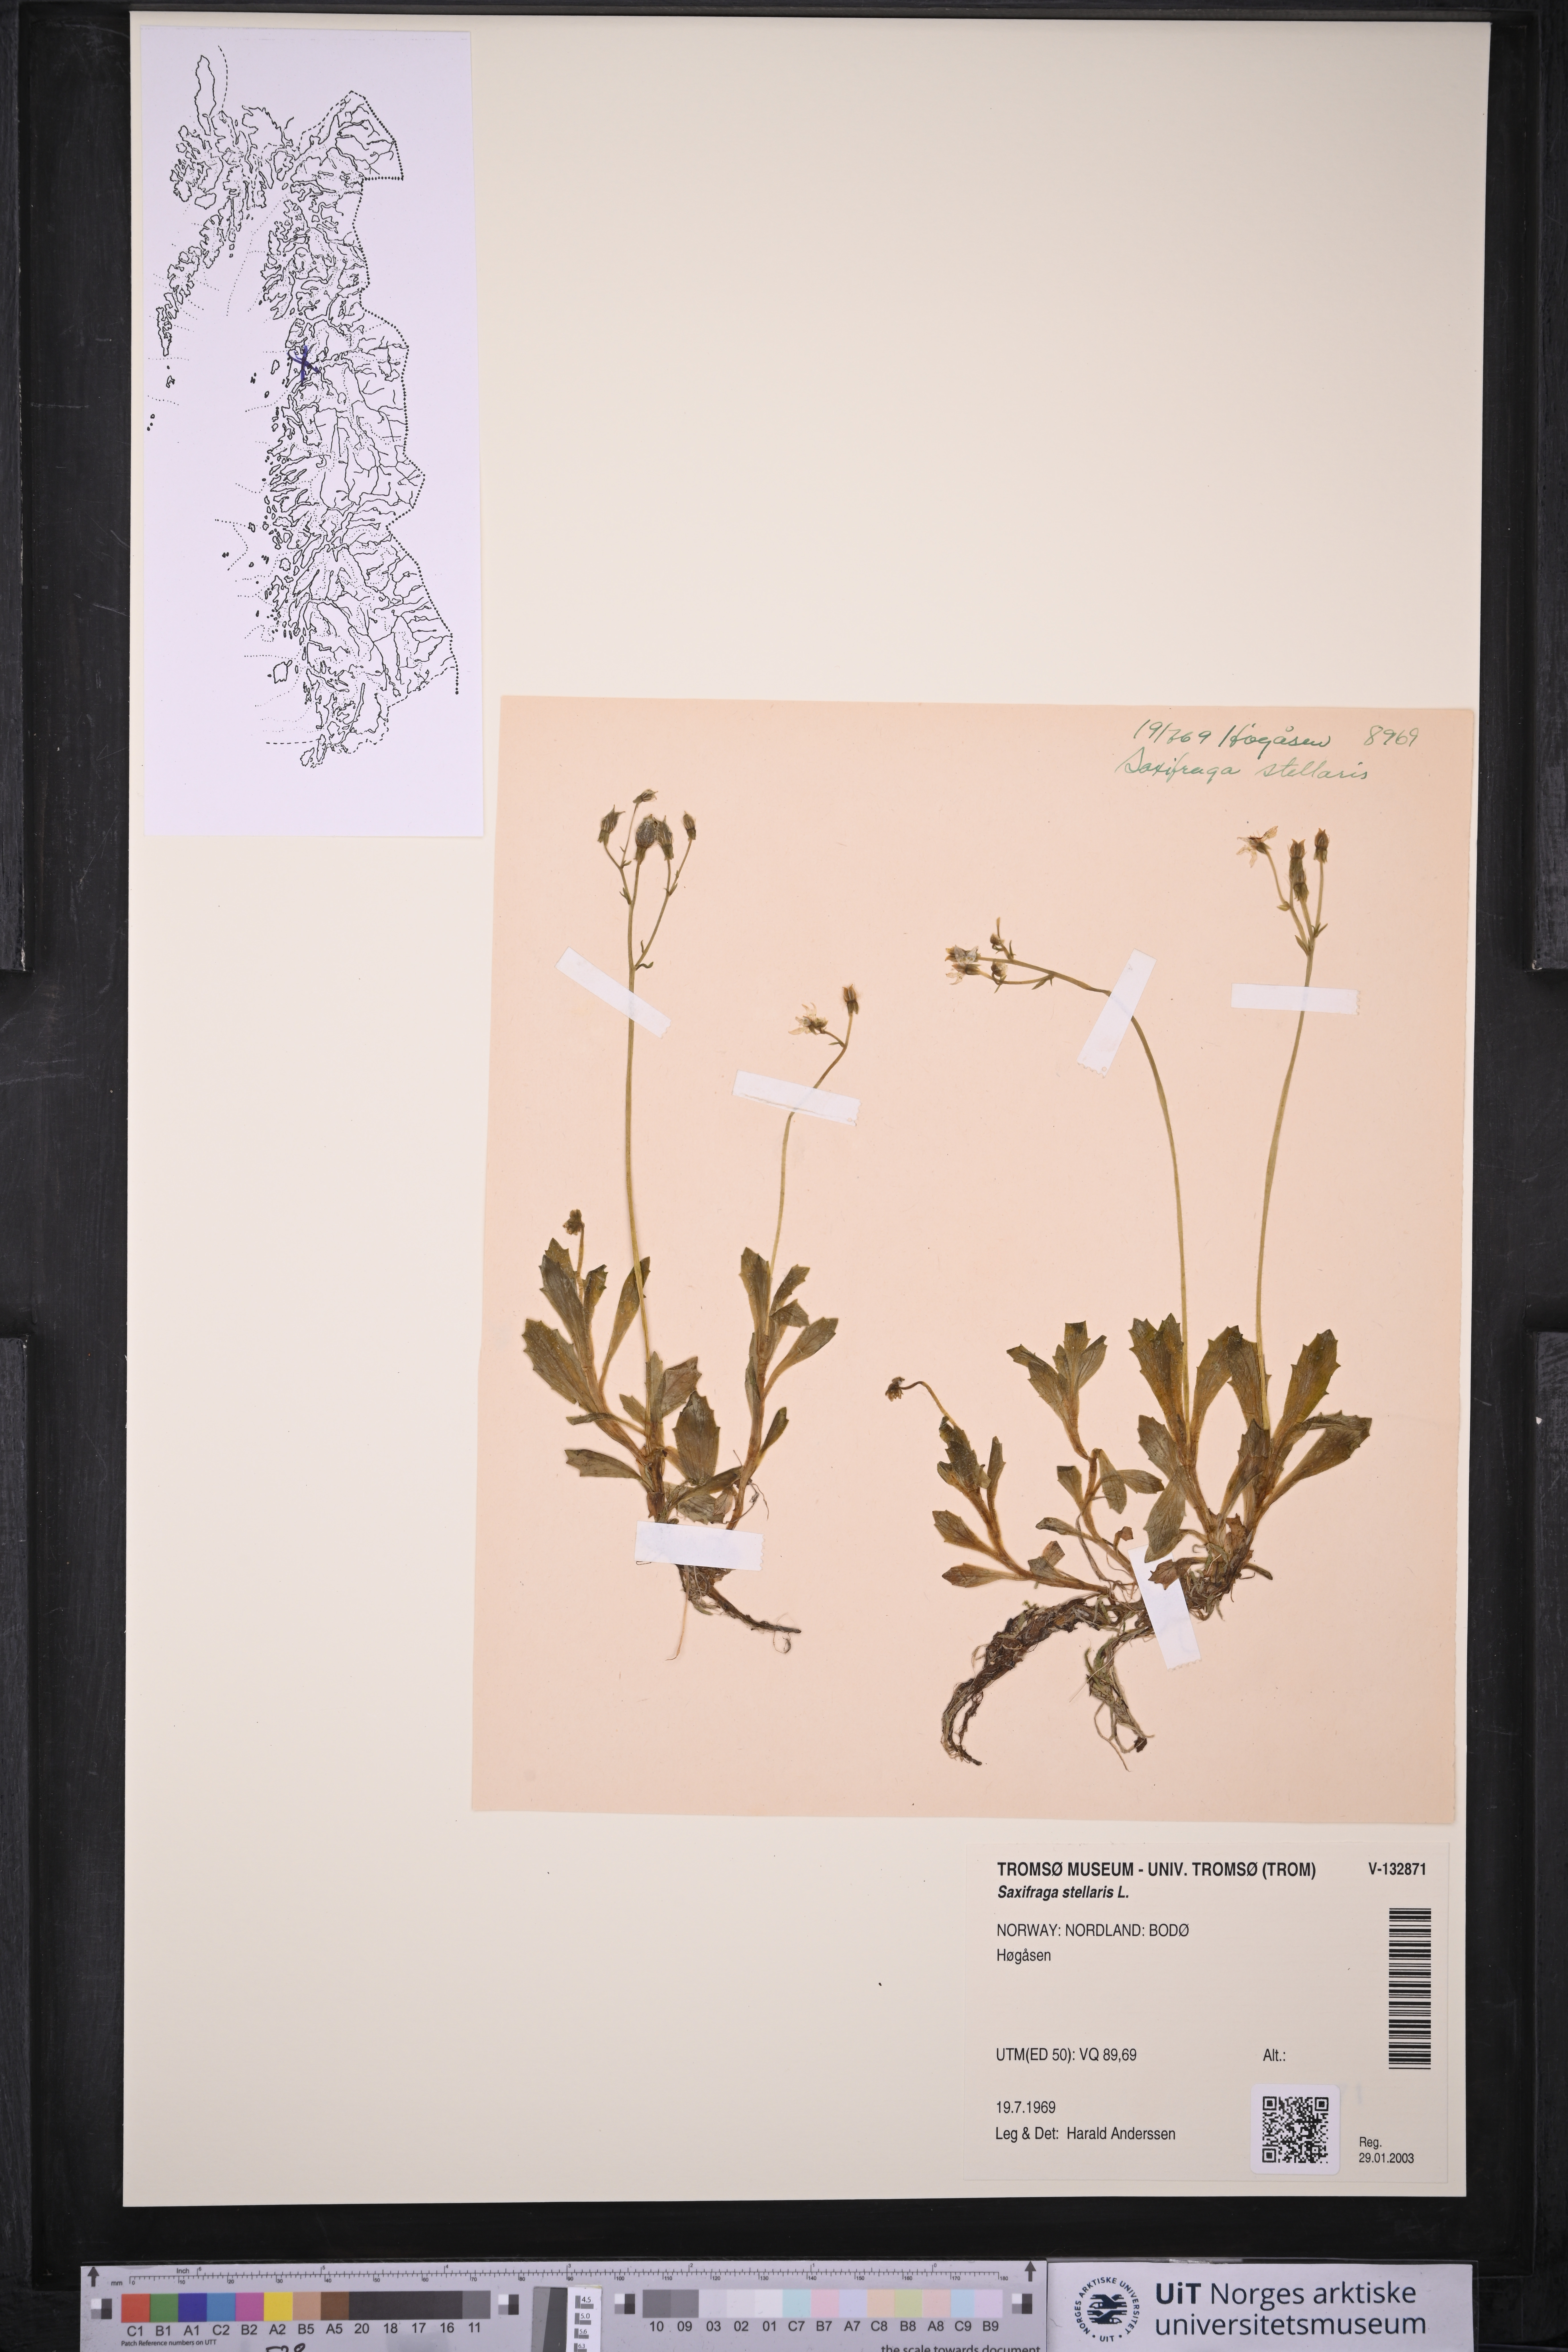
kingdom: Plantae
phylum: Tracheophyta
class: Magnoliopsida
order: Saxifragales
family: Saxifragaceae
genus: Micranthes
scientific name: Micranthes stellaris
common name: Starry saxifrage
